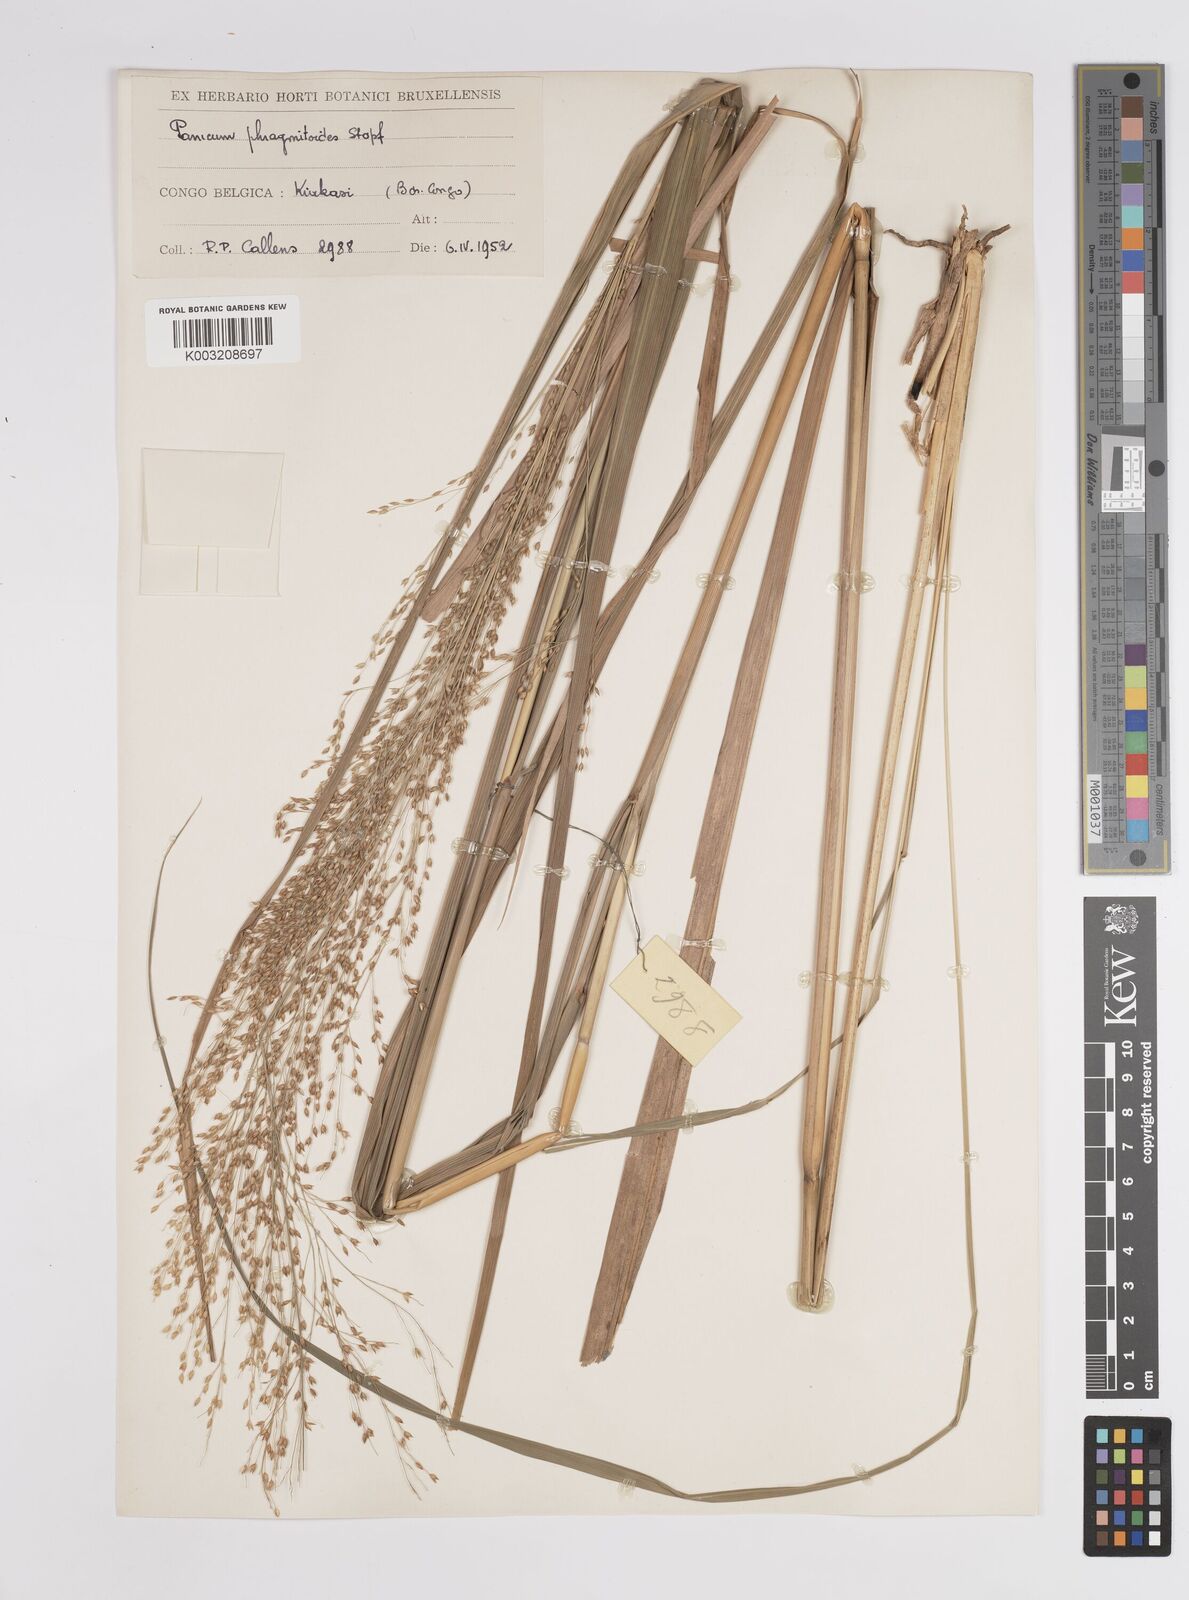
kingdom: Plantae
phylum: Tracheophyta
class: Liliopsida
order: Poales
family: Poaceae
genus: Panicum
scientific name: Panicum phragmitoides
